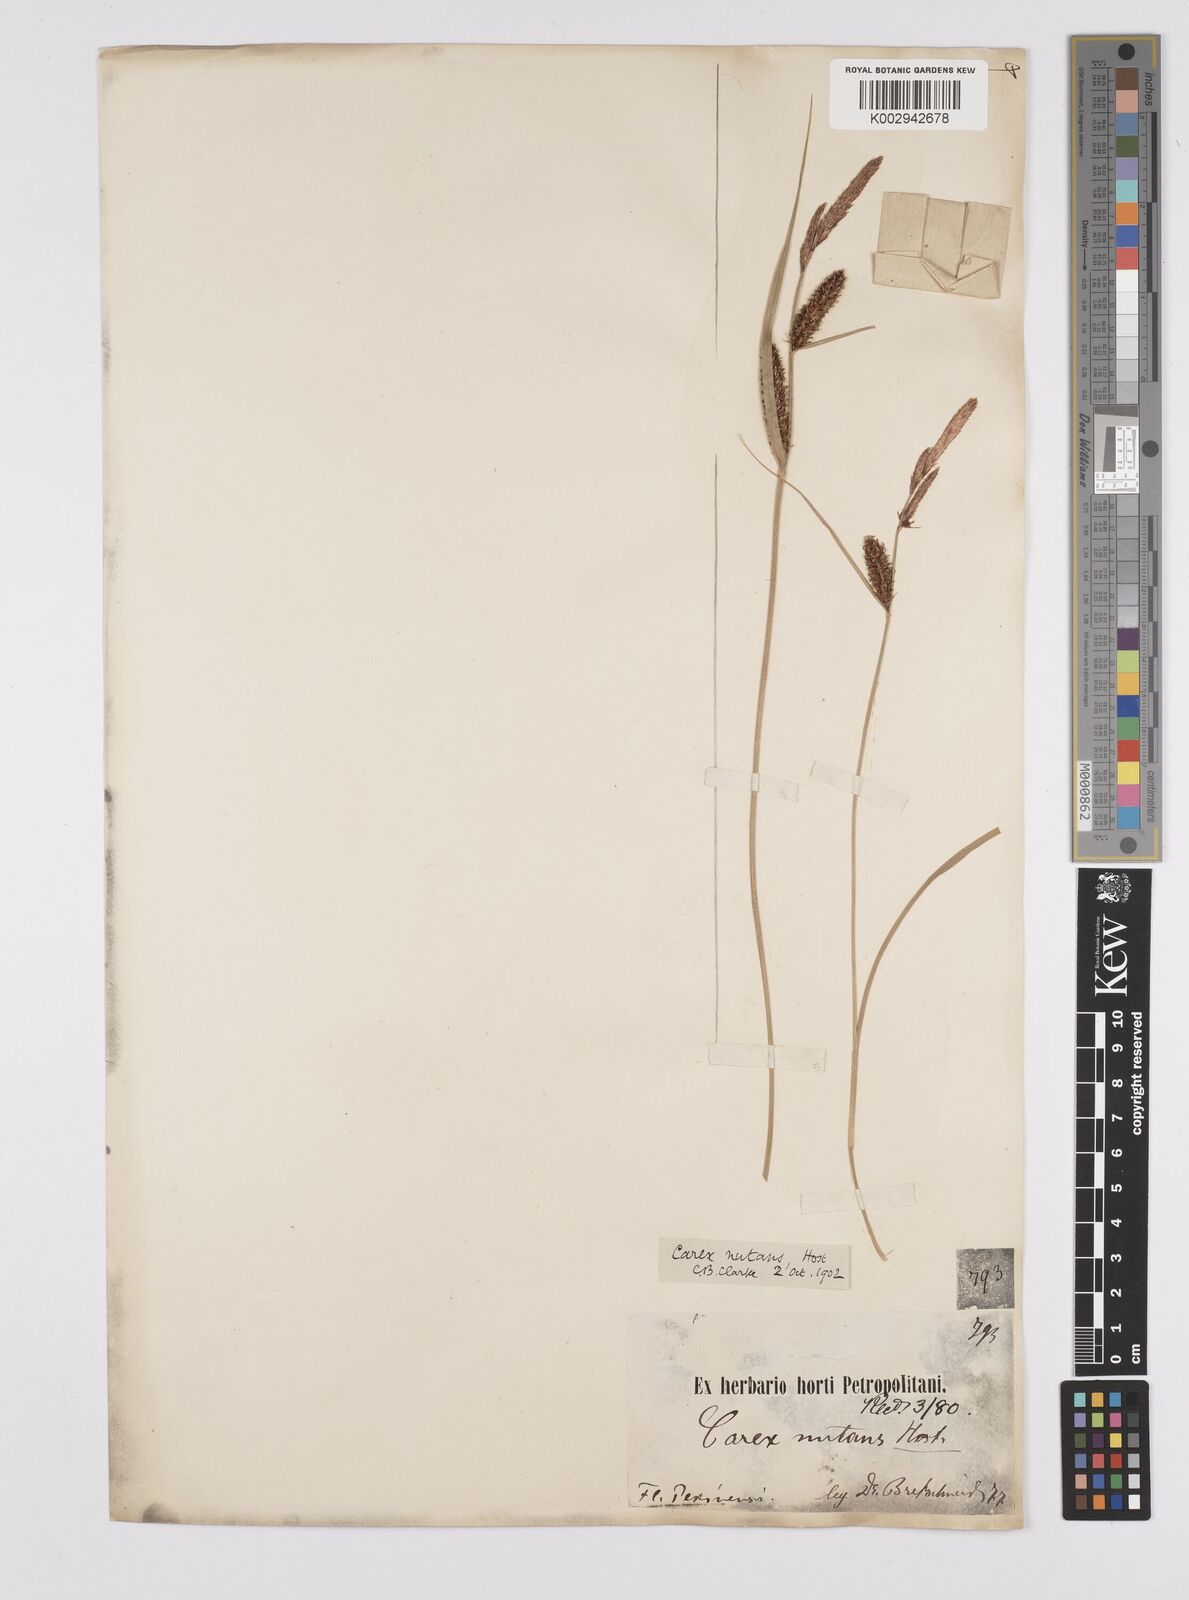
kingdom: Plantae
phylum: Tracheophyta
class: Liliopsida
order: Poales
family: Cyperaceae
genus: Carex
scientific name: Carex melanostachya
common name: Black-spiked sedge
